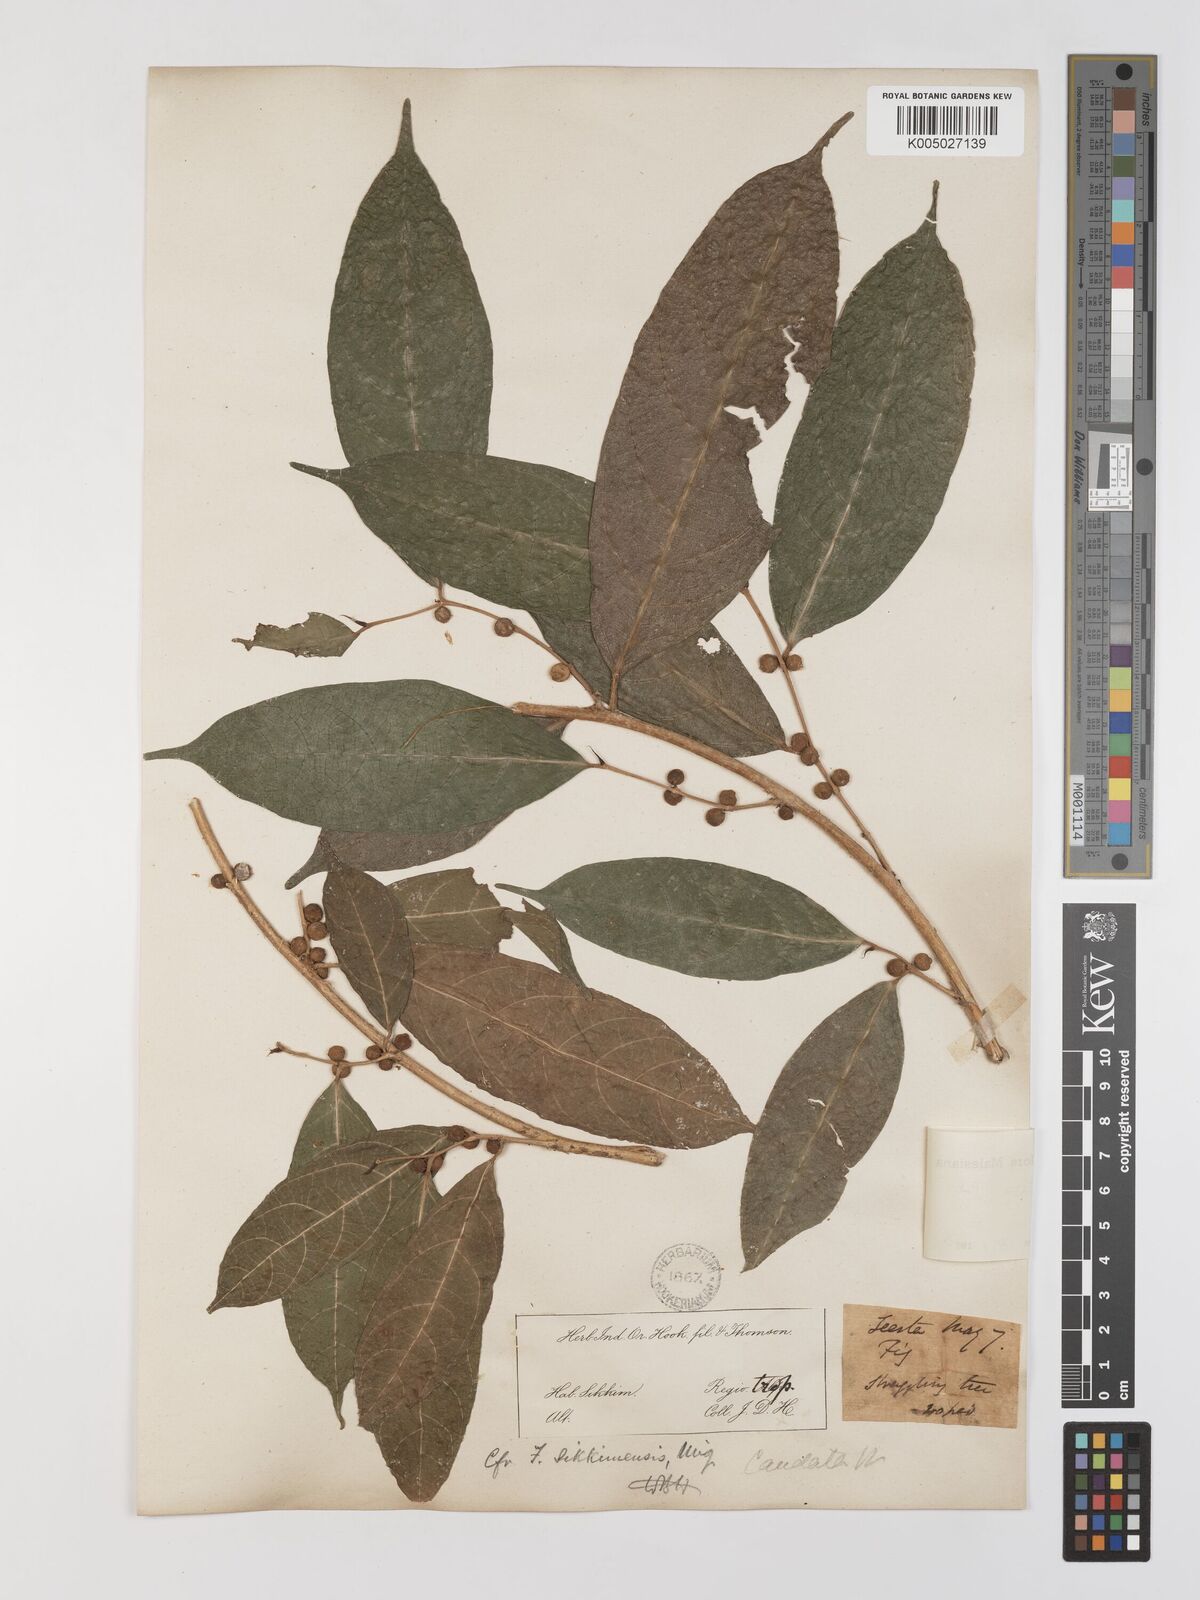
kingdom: Plantae
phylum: Tracheophyta
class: Magnoliopsida
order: Rosales
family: Moraceae
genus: Ficus
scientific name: Ficus subulata
